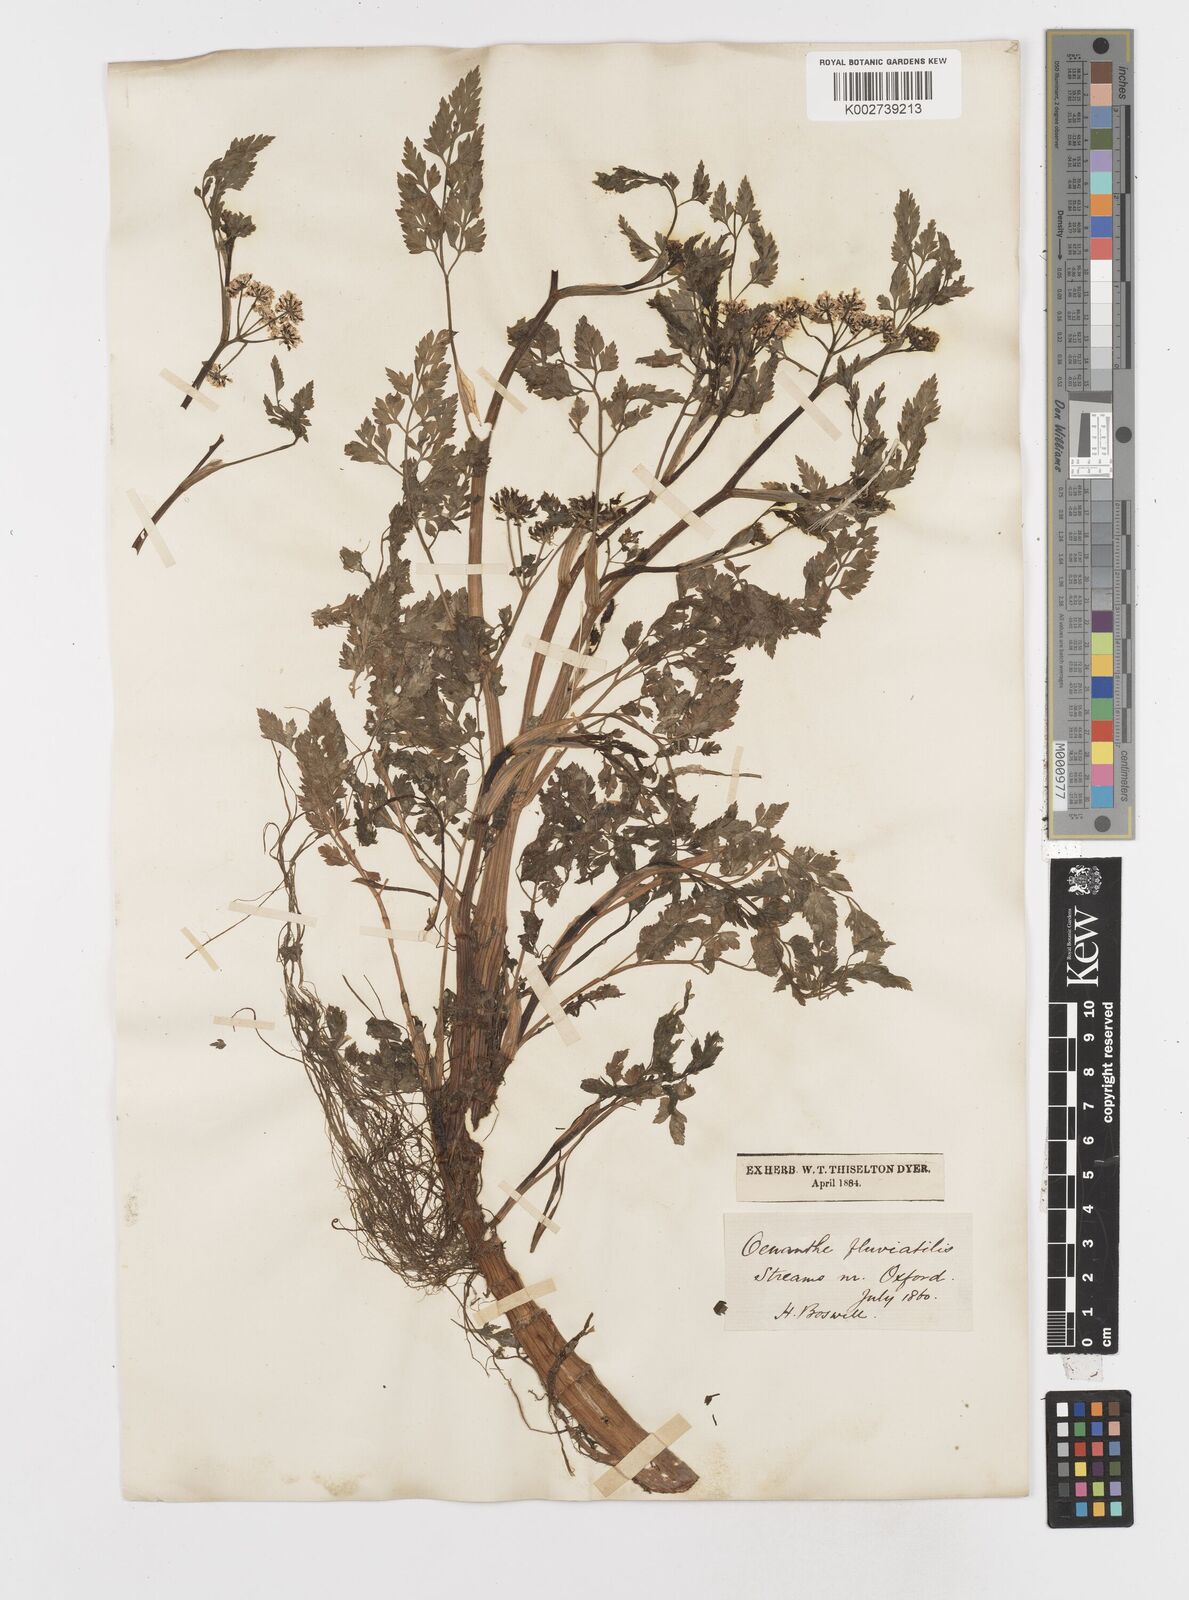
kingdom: Plantae
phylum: Tracheophyta
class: Magnoliopsida
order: Apiales
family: Apiaceae
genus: Oenanthe
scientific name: Oenanthe fluviatilis
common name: River water-dropwort
